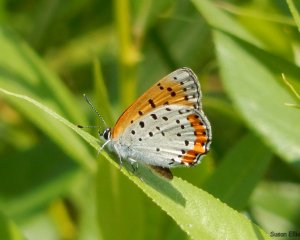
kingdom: Animalia
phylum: Arthropoda
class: Insecta
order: Lepidoptera
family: Lycaenidae
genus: Lycaena
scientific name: Lycaena phlaeas
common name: American Copper
